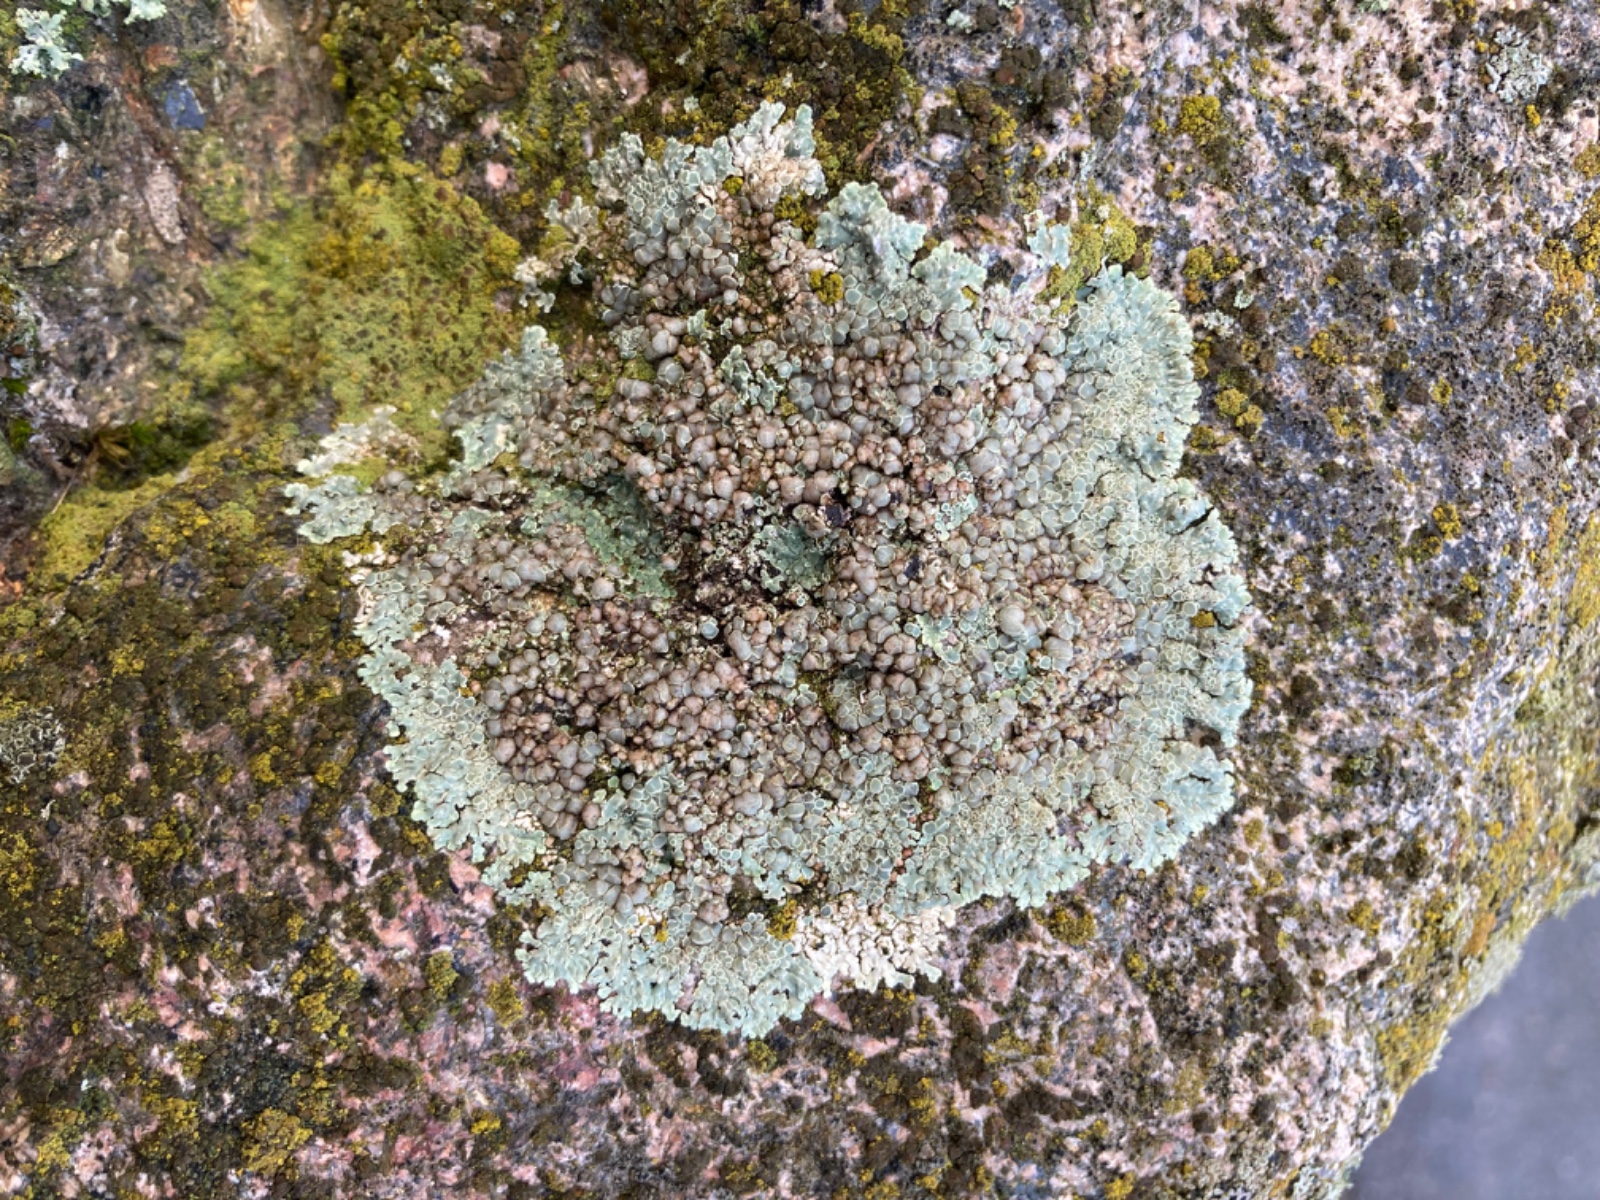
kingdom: Fungi
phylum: Ascomycota
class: Lecanoromycetes
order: Lecanorales
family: Lecanoraceae
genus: Protoparmeliopsis
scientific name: Protoparmeliopsis muralis
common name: randfliget kantskivelav
